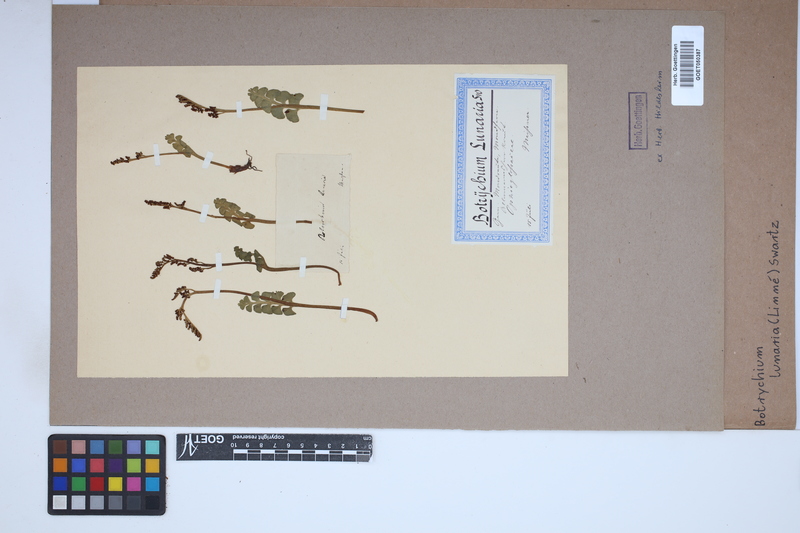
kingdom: Plantae
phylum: Tracheophyta
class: Polypodiopsida
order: Ophioglossales
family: Ophioglossaceae
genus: Botrychium
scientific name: Botrychium lunaria
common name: Moonwort
